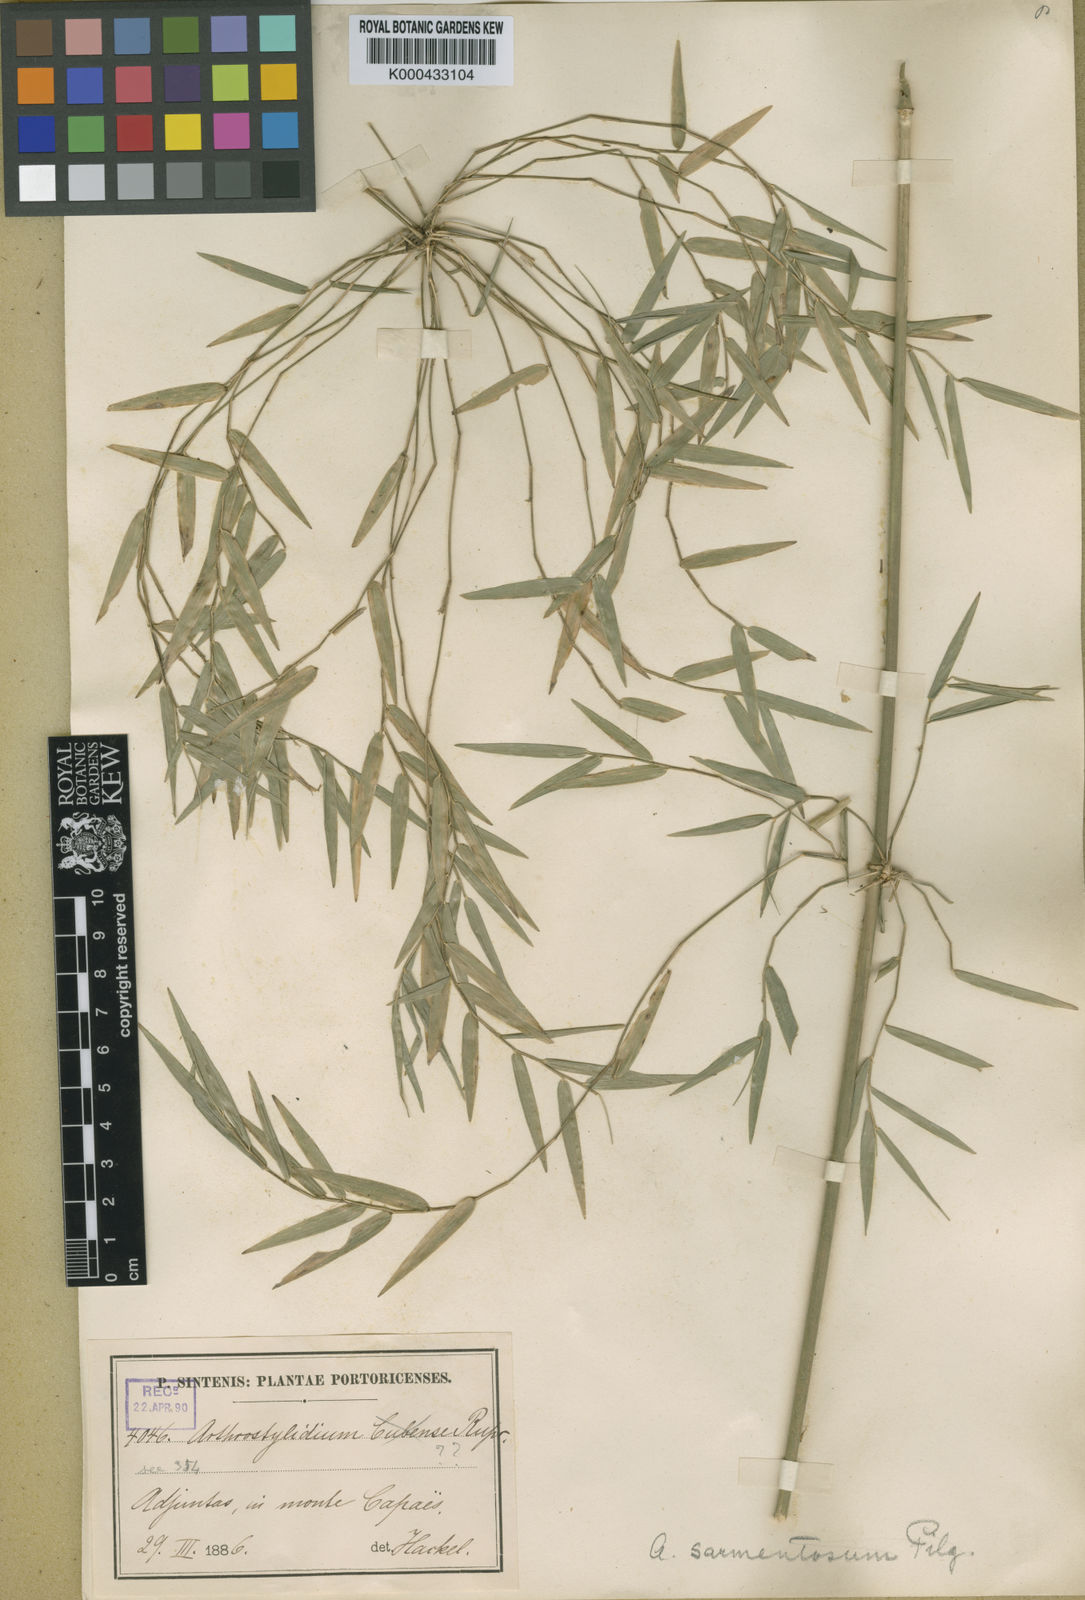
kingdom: Plantae
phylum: Tracheophyta
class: Liliopsida
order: Poales
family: Poaceae
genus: Arthrostylidium
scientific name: Arthrostylidium sarmentosum
